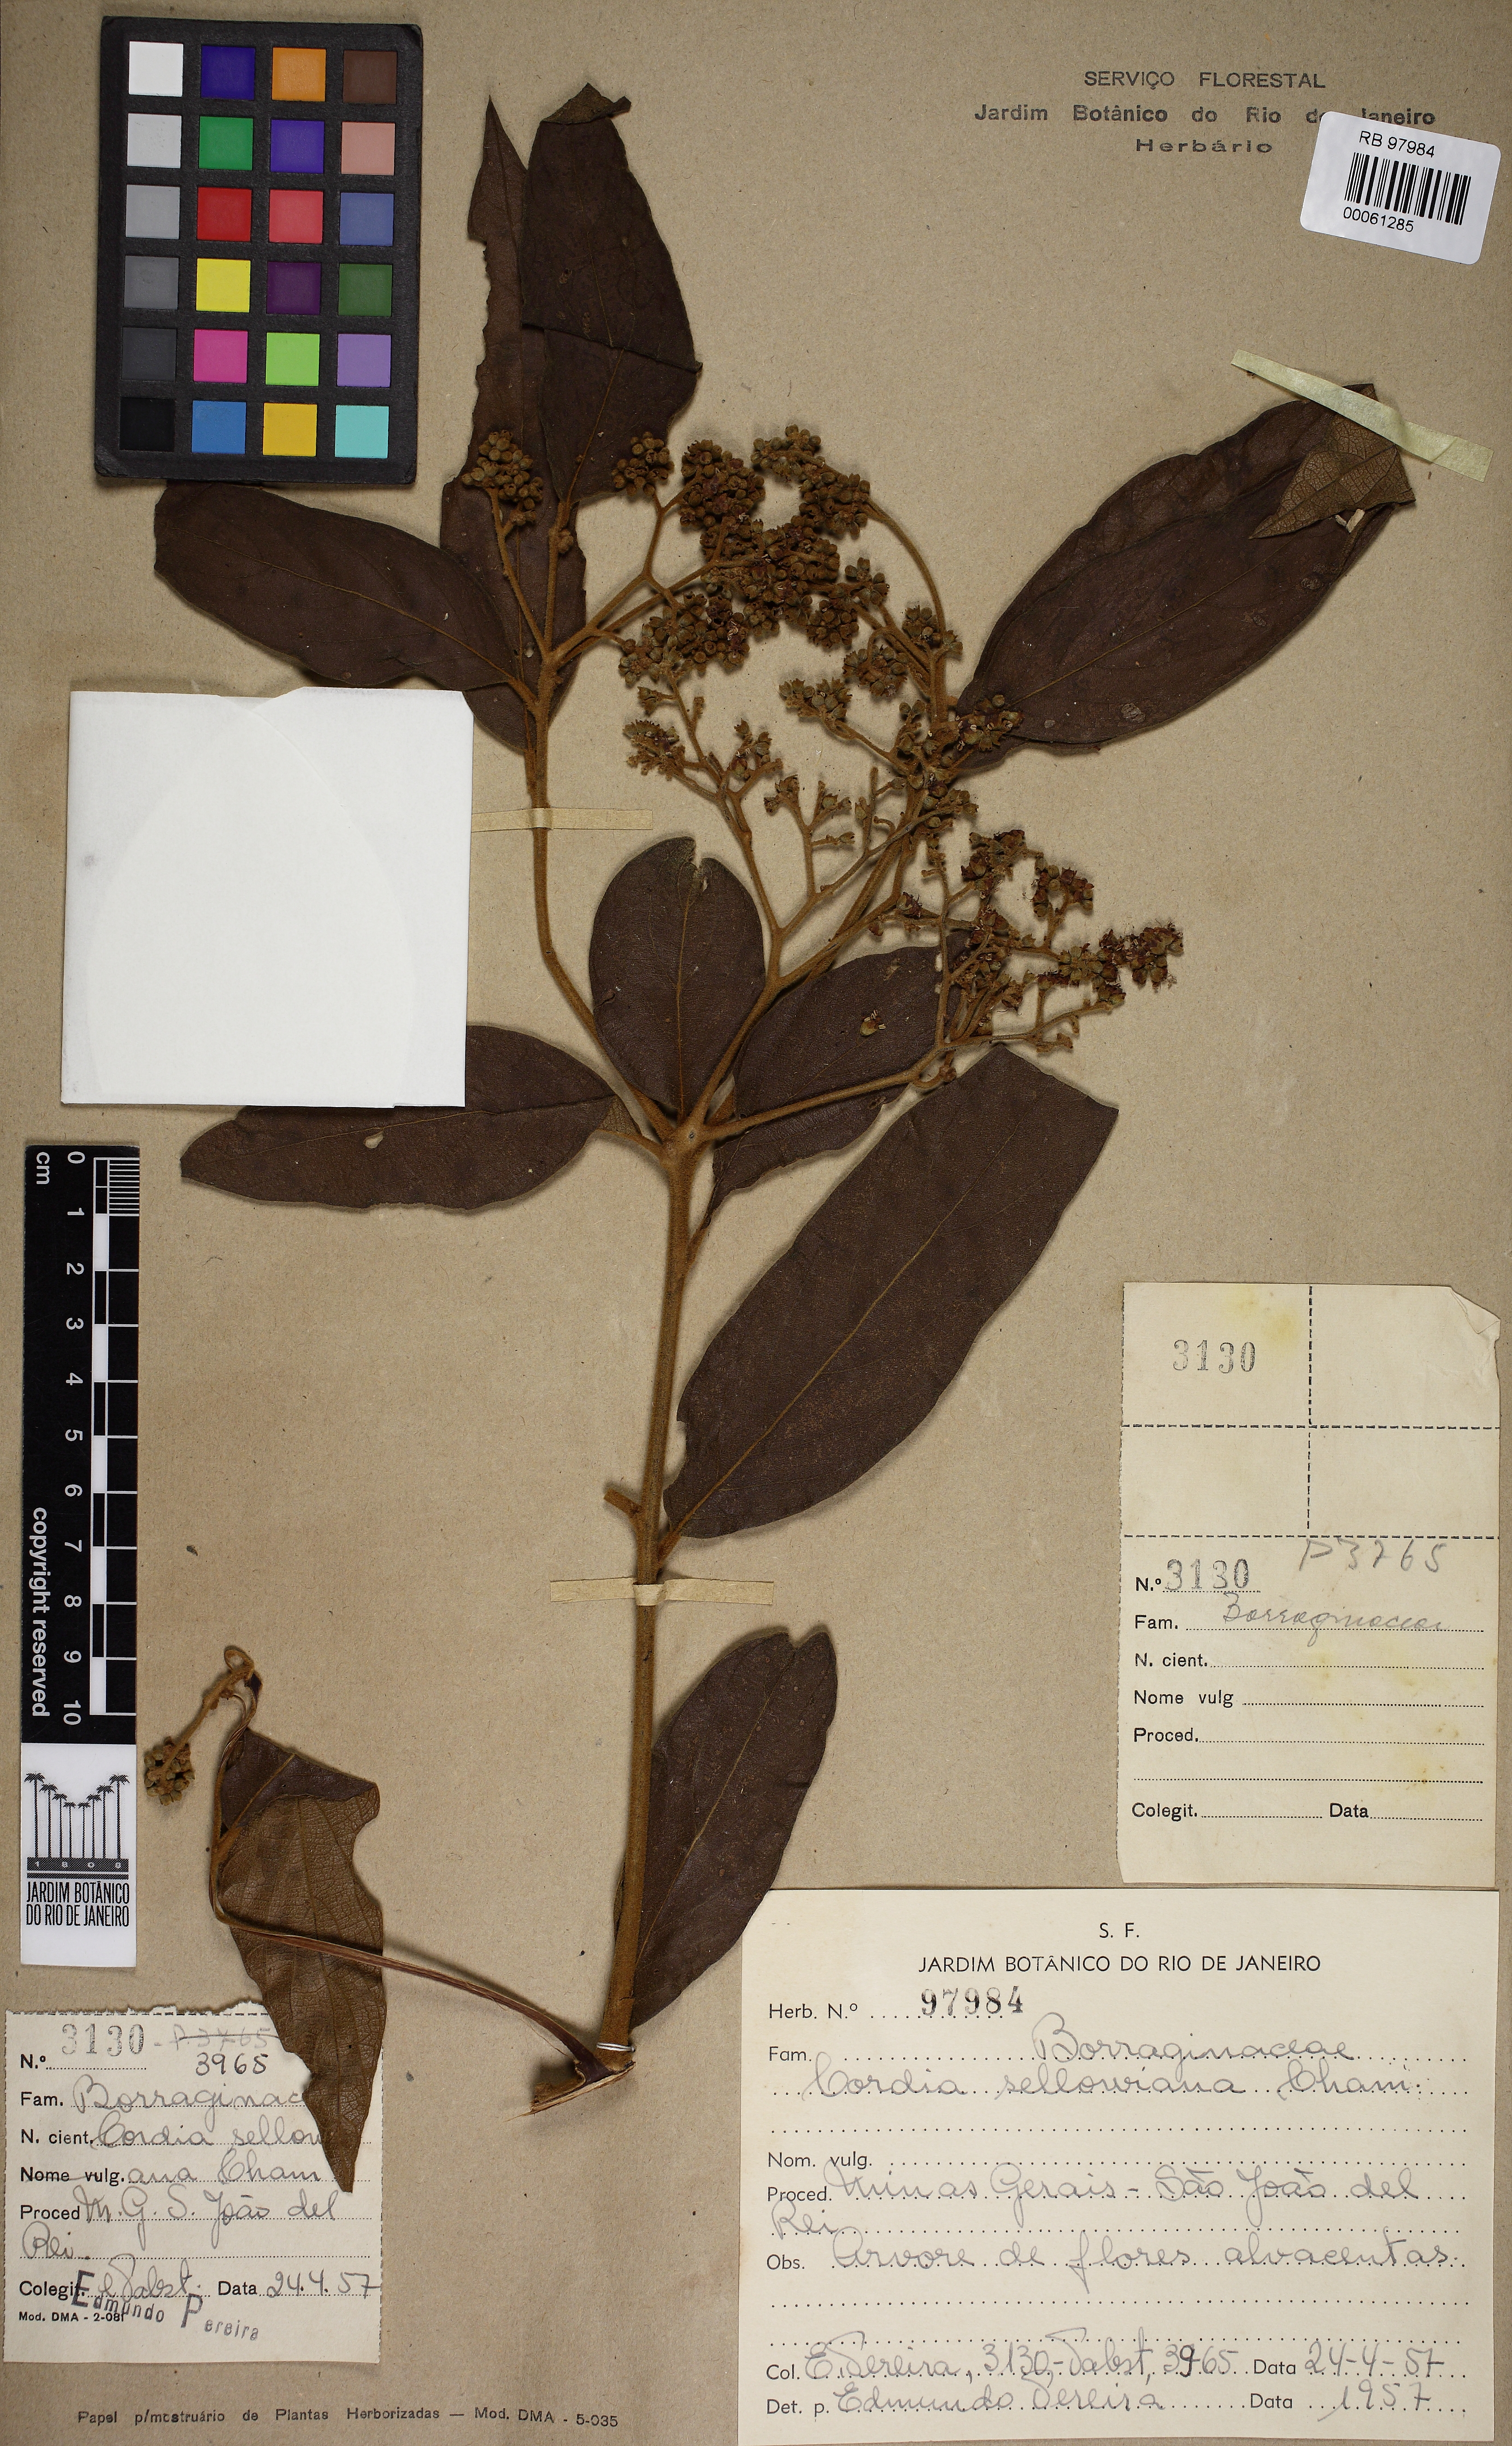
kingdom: Plantae
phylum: Tracheophyta
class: Magnoliopsida
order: Boraginales
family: Cordiaceae
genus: Cordia
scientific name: Cordia sellowiana
